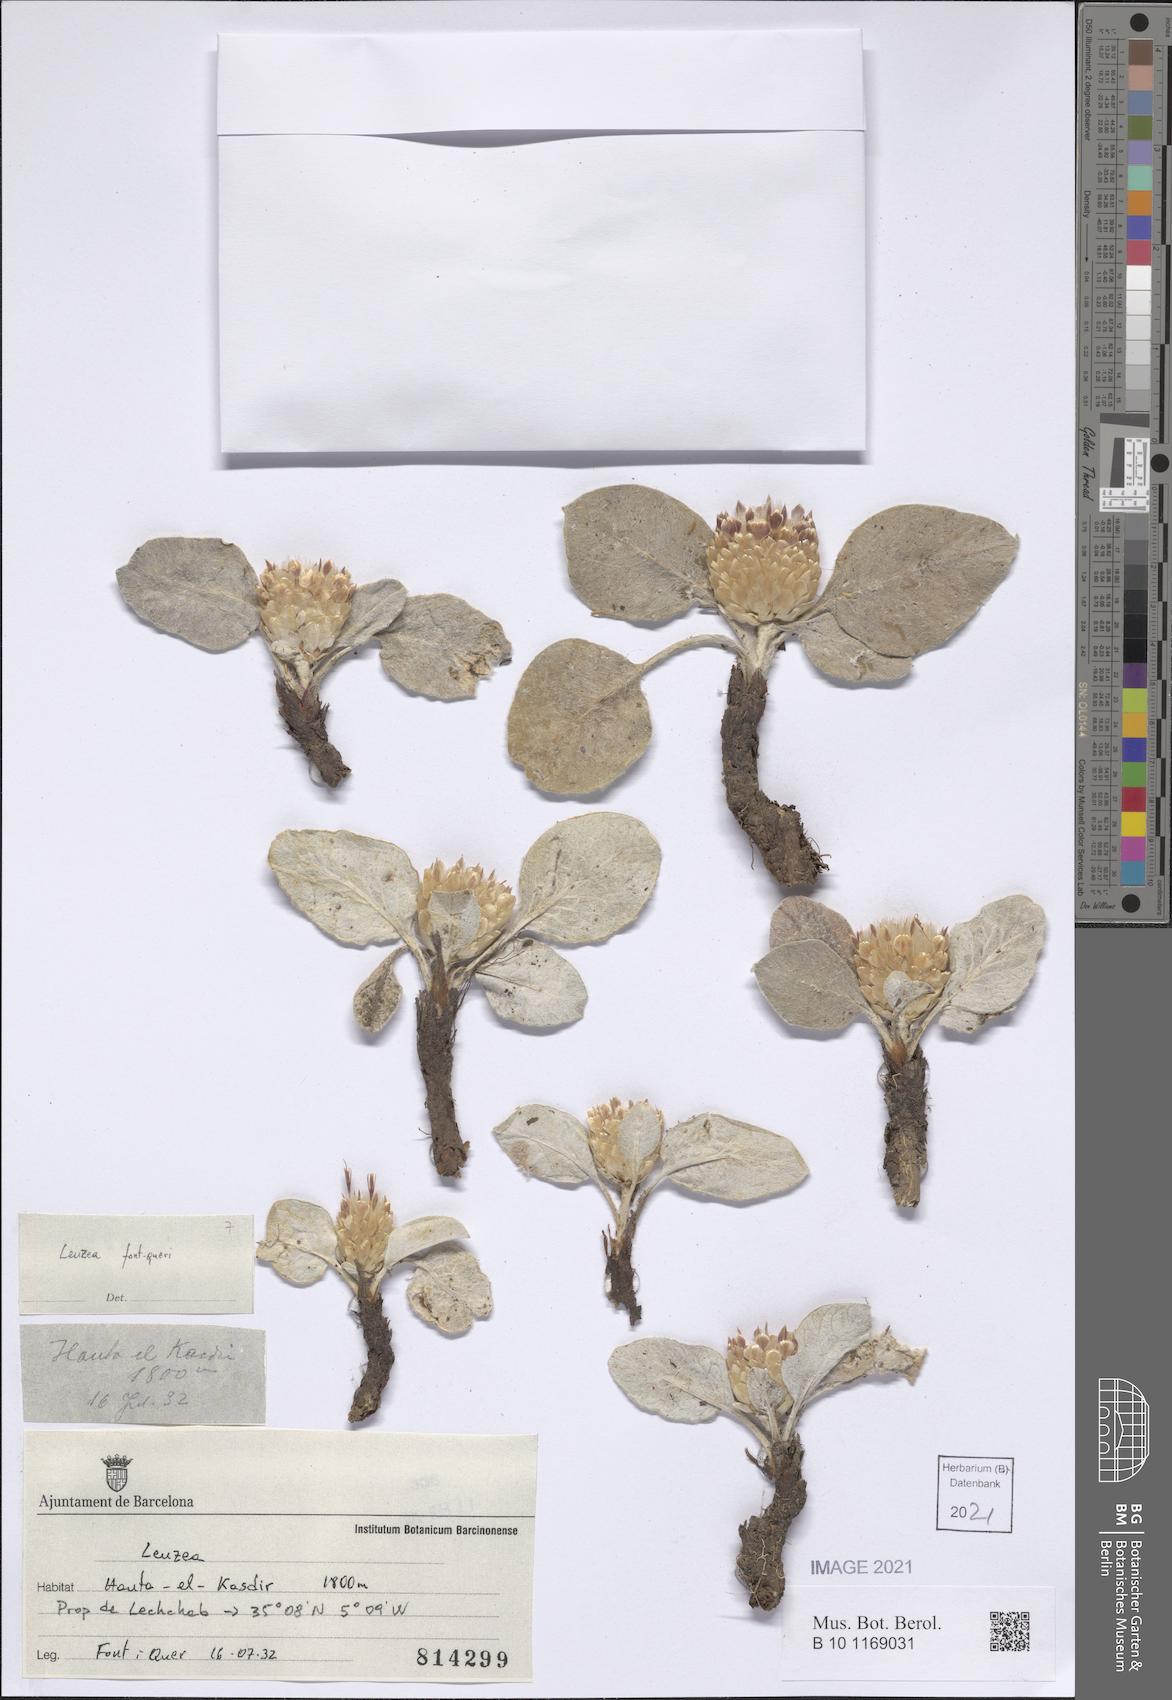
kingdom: Plantae
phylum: Tracheophyta
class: Magnoliopsida
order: Asterales
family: Asteraceae
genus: Leuzea
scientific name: Leuzea berardioides
